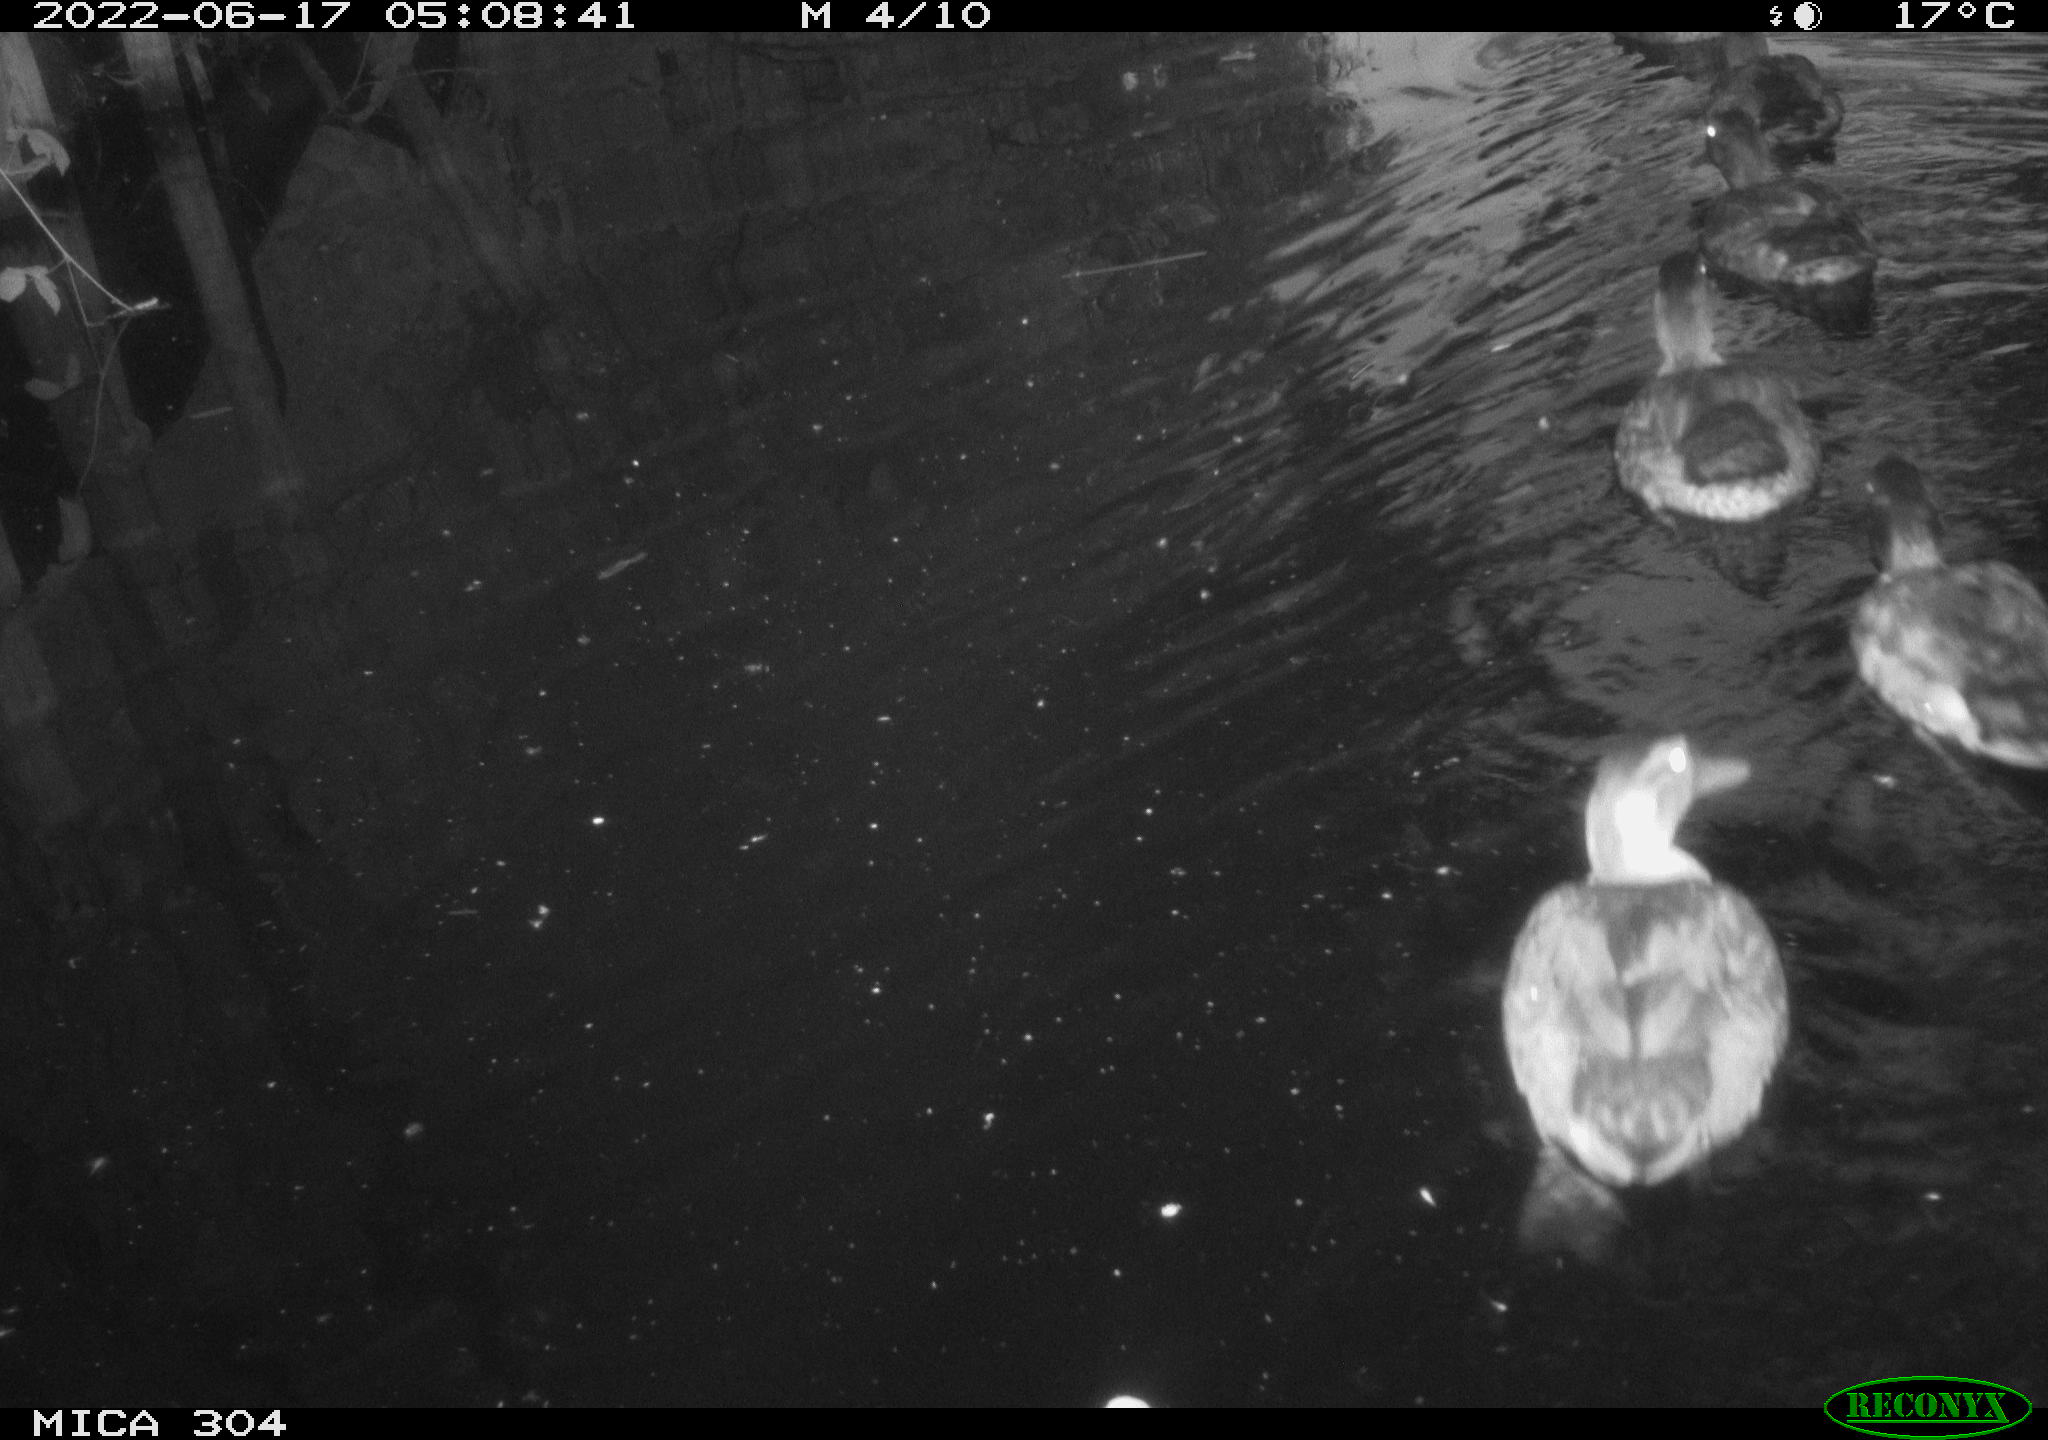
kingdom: Animalia
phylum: Chordata
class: Aves
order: Anseriformes
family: Anatidae
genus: Anas
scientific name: Anas platyrhynchos
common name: Mallard
